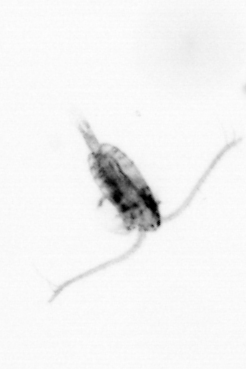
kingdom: Animalia
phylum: Arthropoda
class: Copepoda
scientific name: Copepoda
